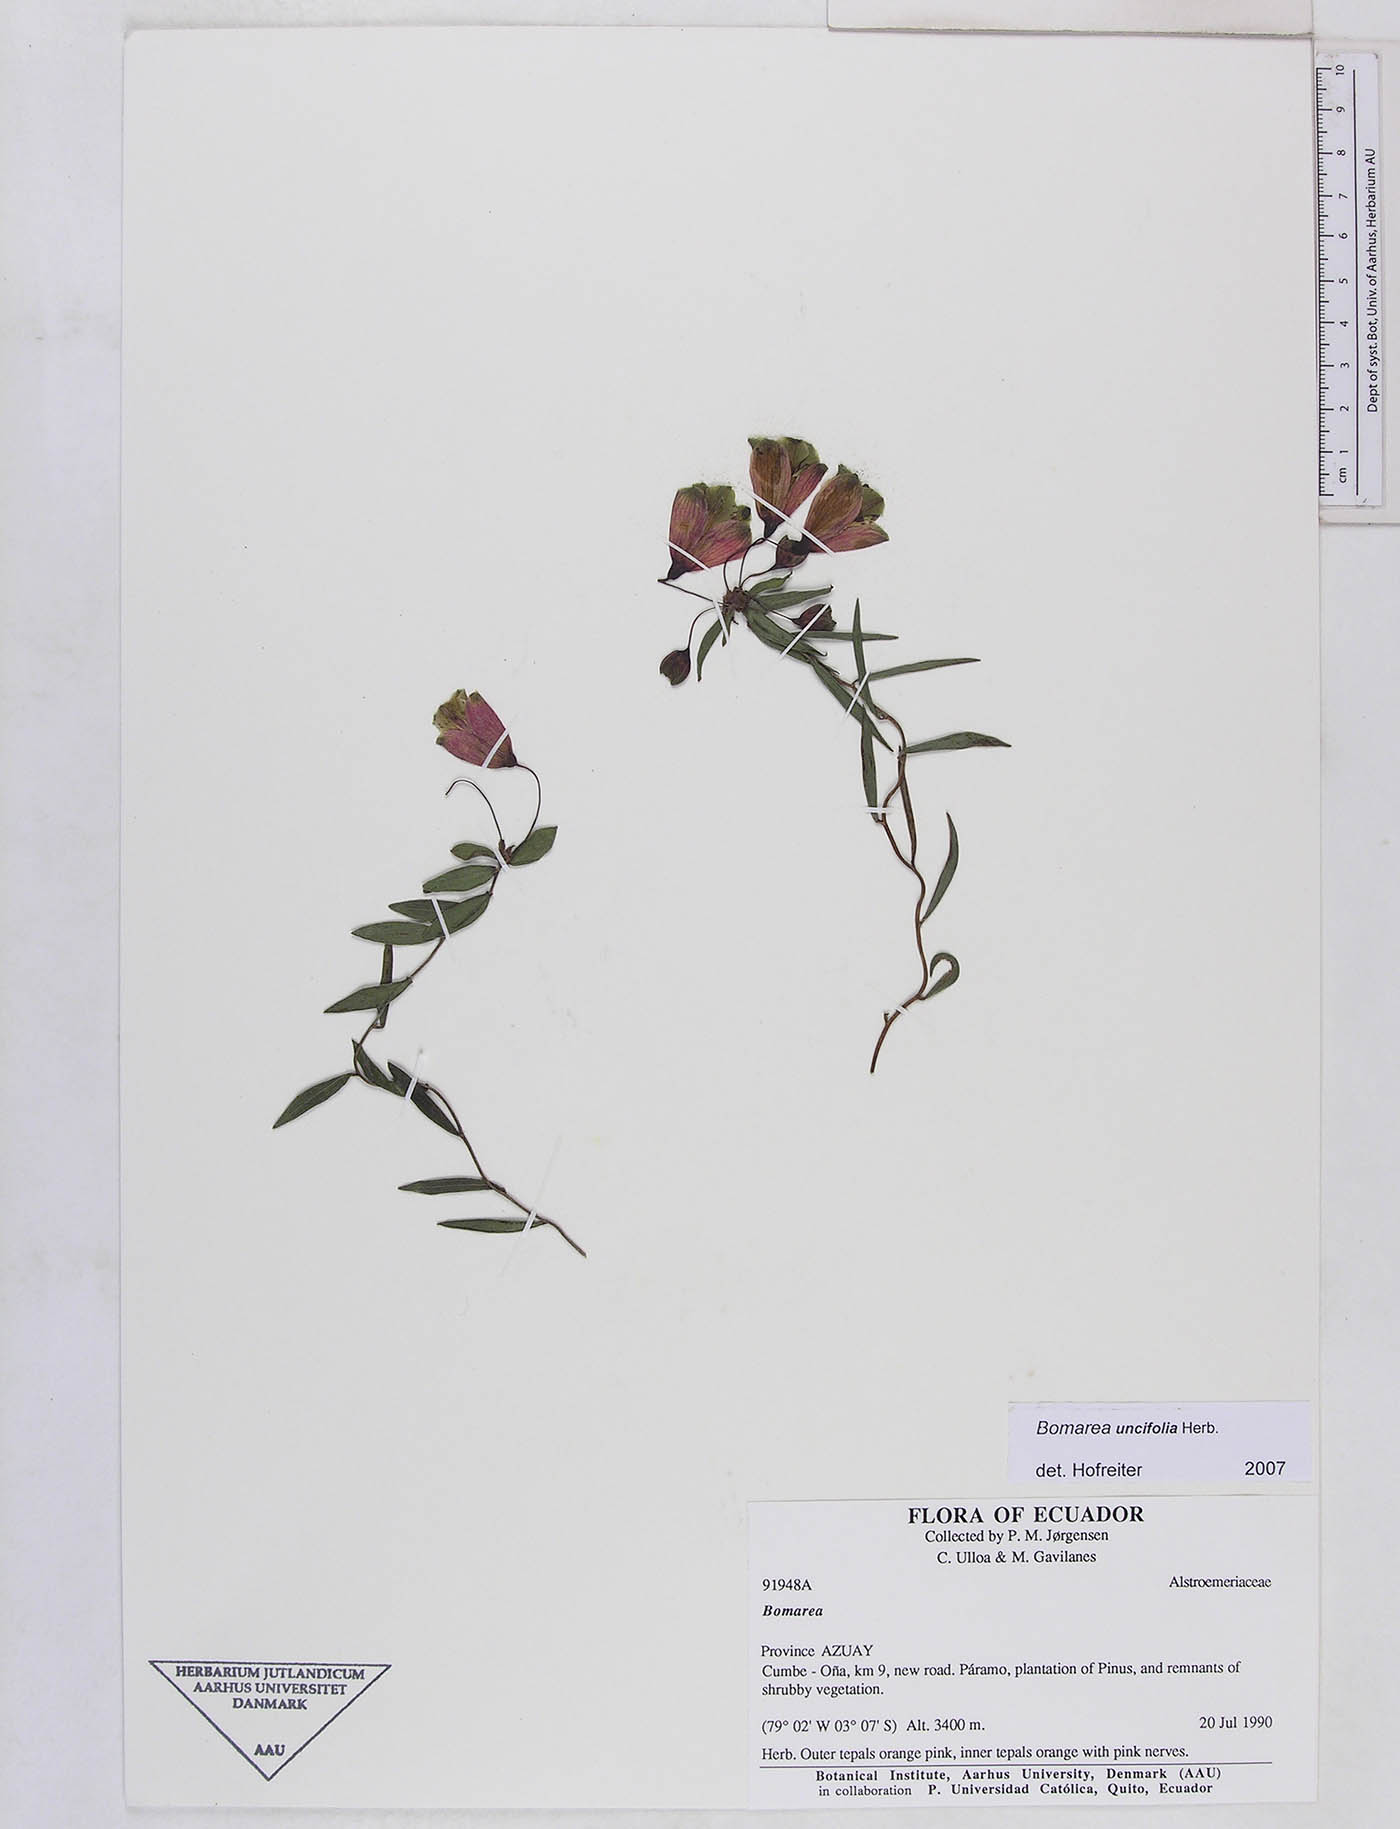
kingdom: Plantae
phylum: Tracheophyta
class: Liliopsida
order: Liliales
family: Alstroemeriaceae
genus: Bomarea
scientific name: Bomarea uncifolia
